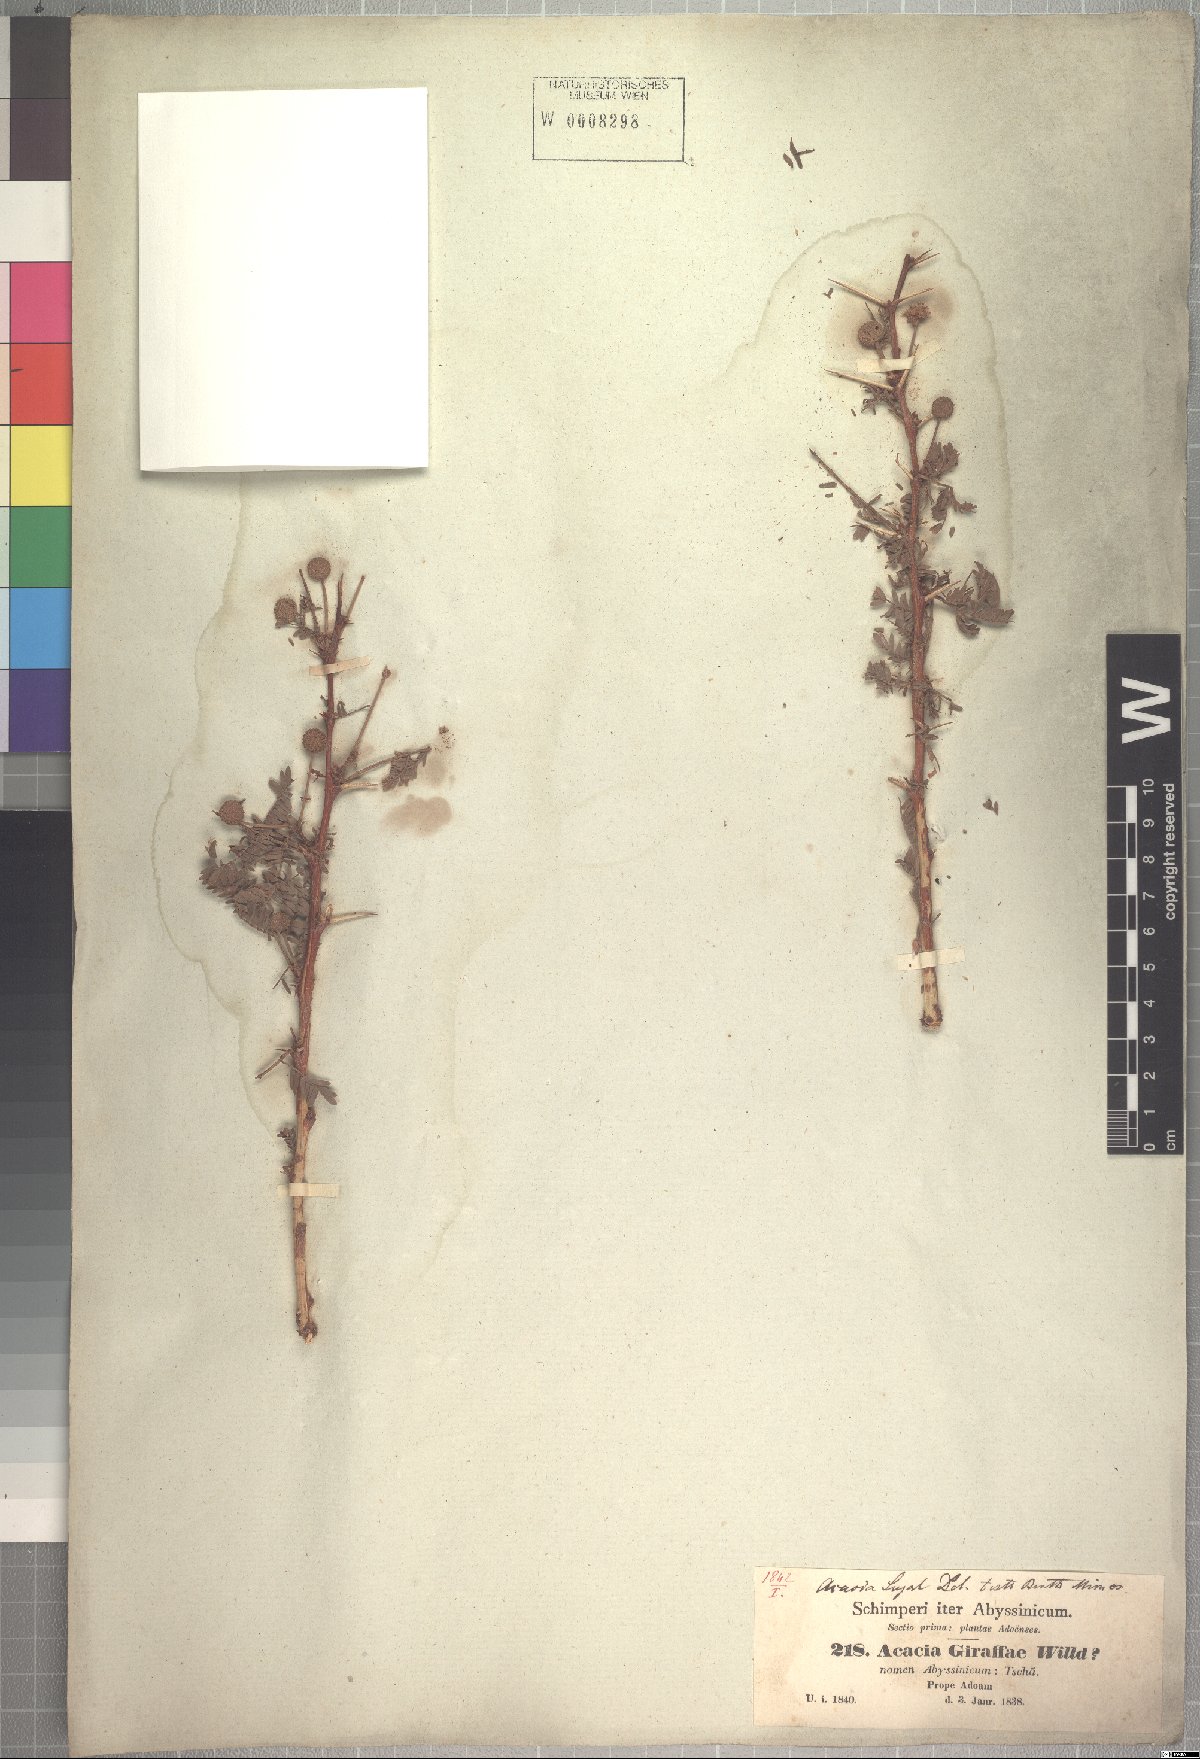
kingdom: Plantae
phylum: Tracheophyta
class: Magnoliopsida
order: Fabales
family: Fabaceae
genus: Vachellia
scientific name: Vachellia seyal
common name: Thirtythorn
